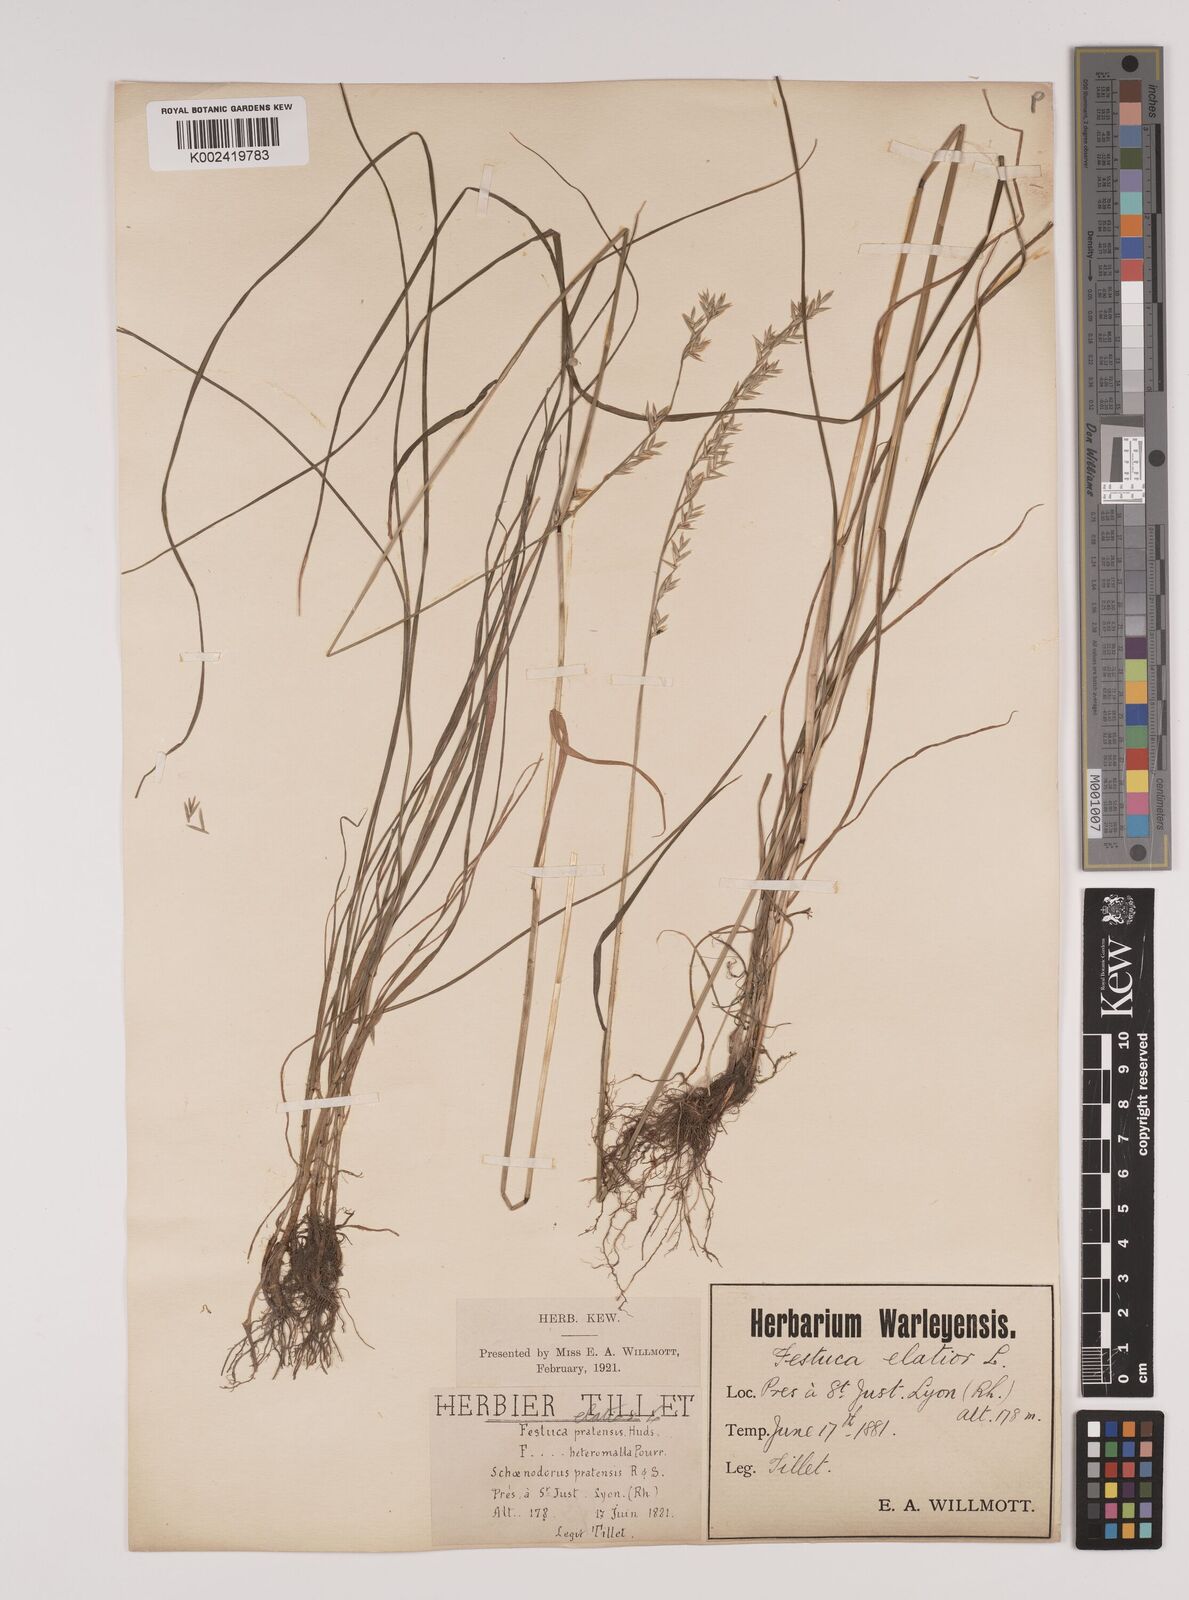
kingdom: Plantae
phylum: Tracheophyta
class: Liliopsida
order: Poales
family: Poaceae
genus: Lolium
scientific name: Lolium pratense
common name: Dover grass
